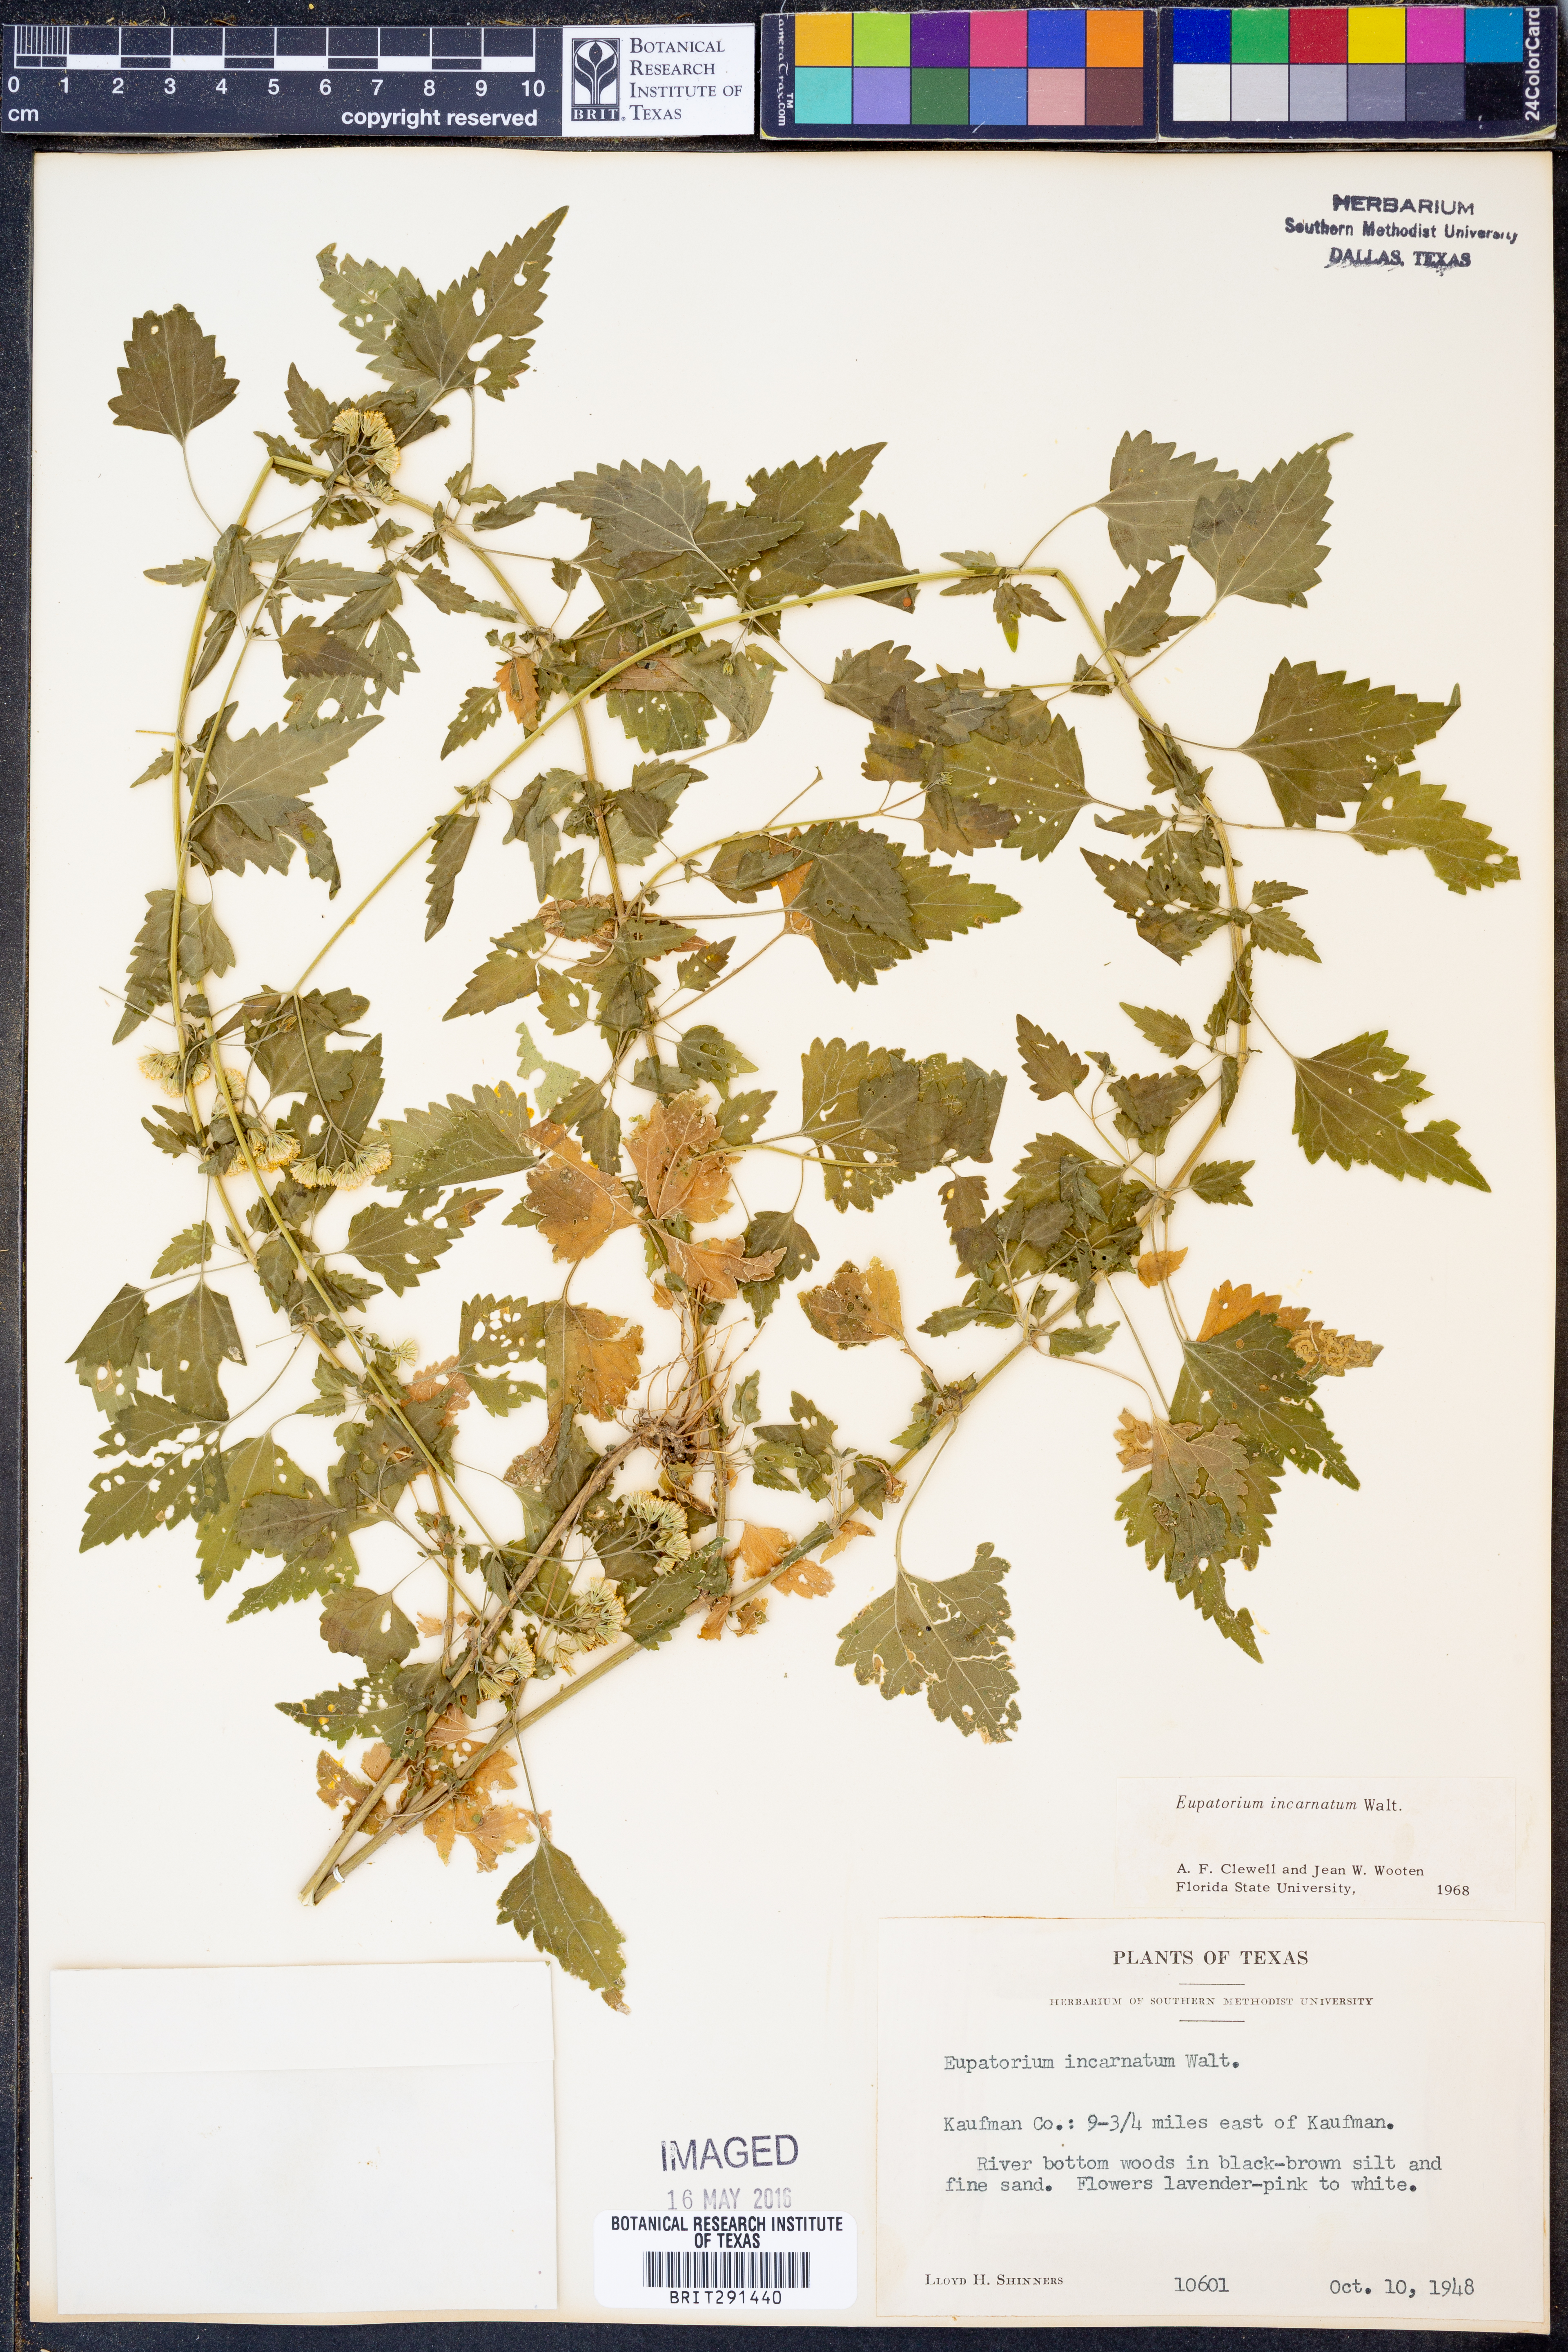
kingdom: Plantae
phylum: Tracheophyta
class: Magnoliopsida
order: Asterales
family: Asteraceae
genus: Fleischmannia
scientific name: Fleischmannia incarnata
